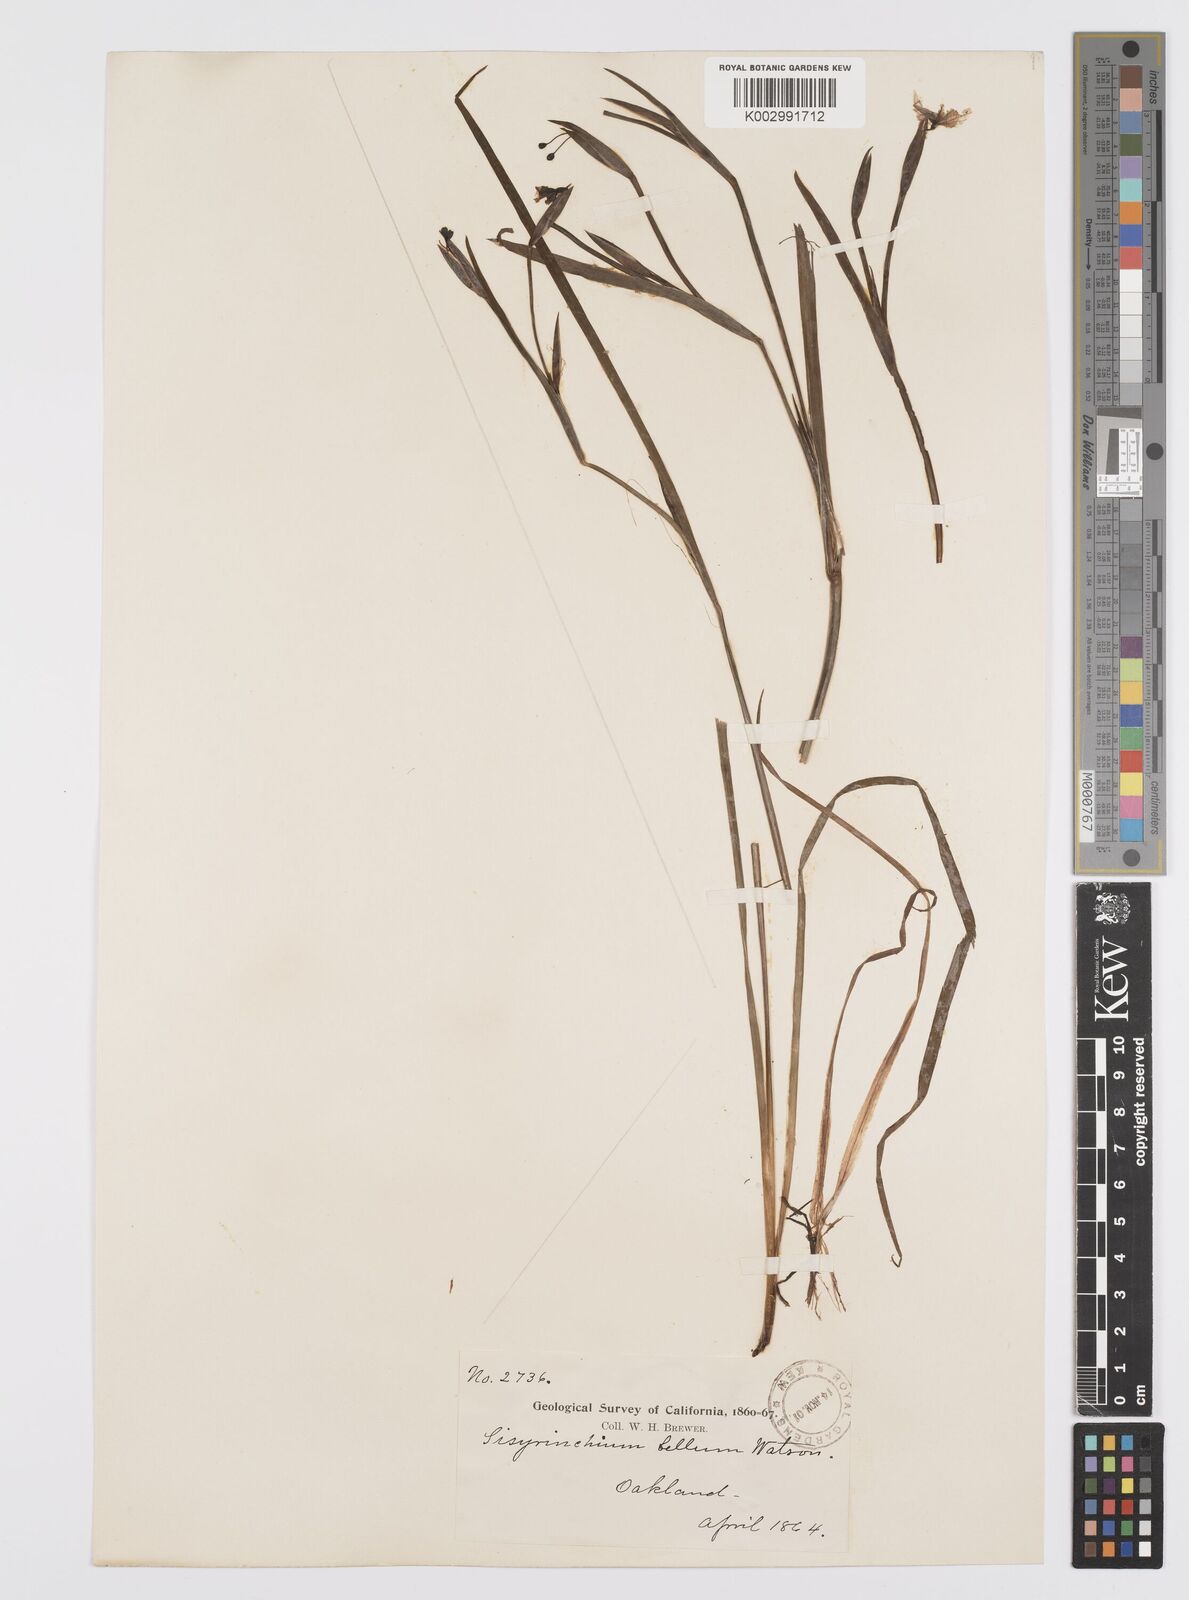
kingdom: Plantae
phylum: Tracheophyta
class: Liliopsida
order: Asparagales
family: Iridaceae
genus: Sisyrinchium
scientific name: Sisyrinchium bellum
